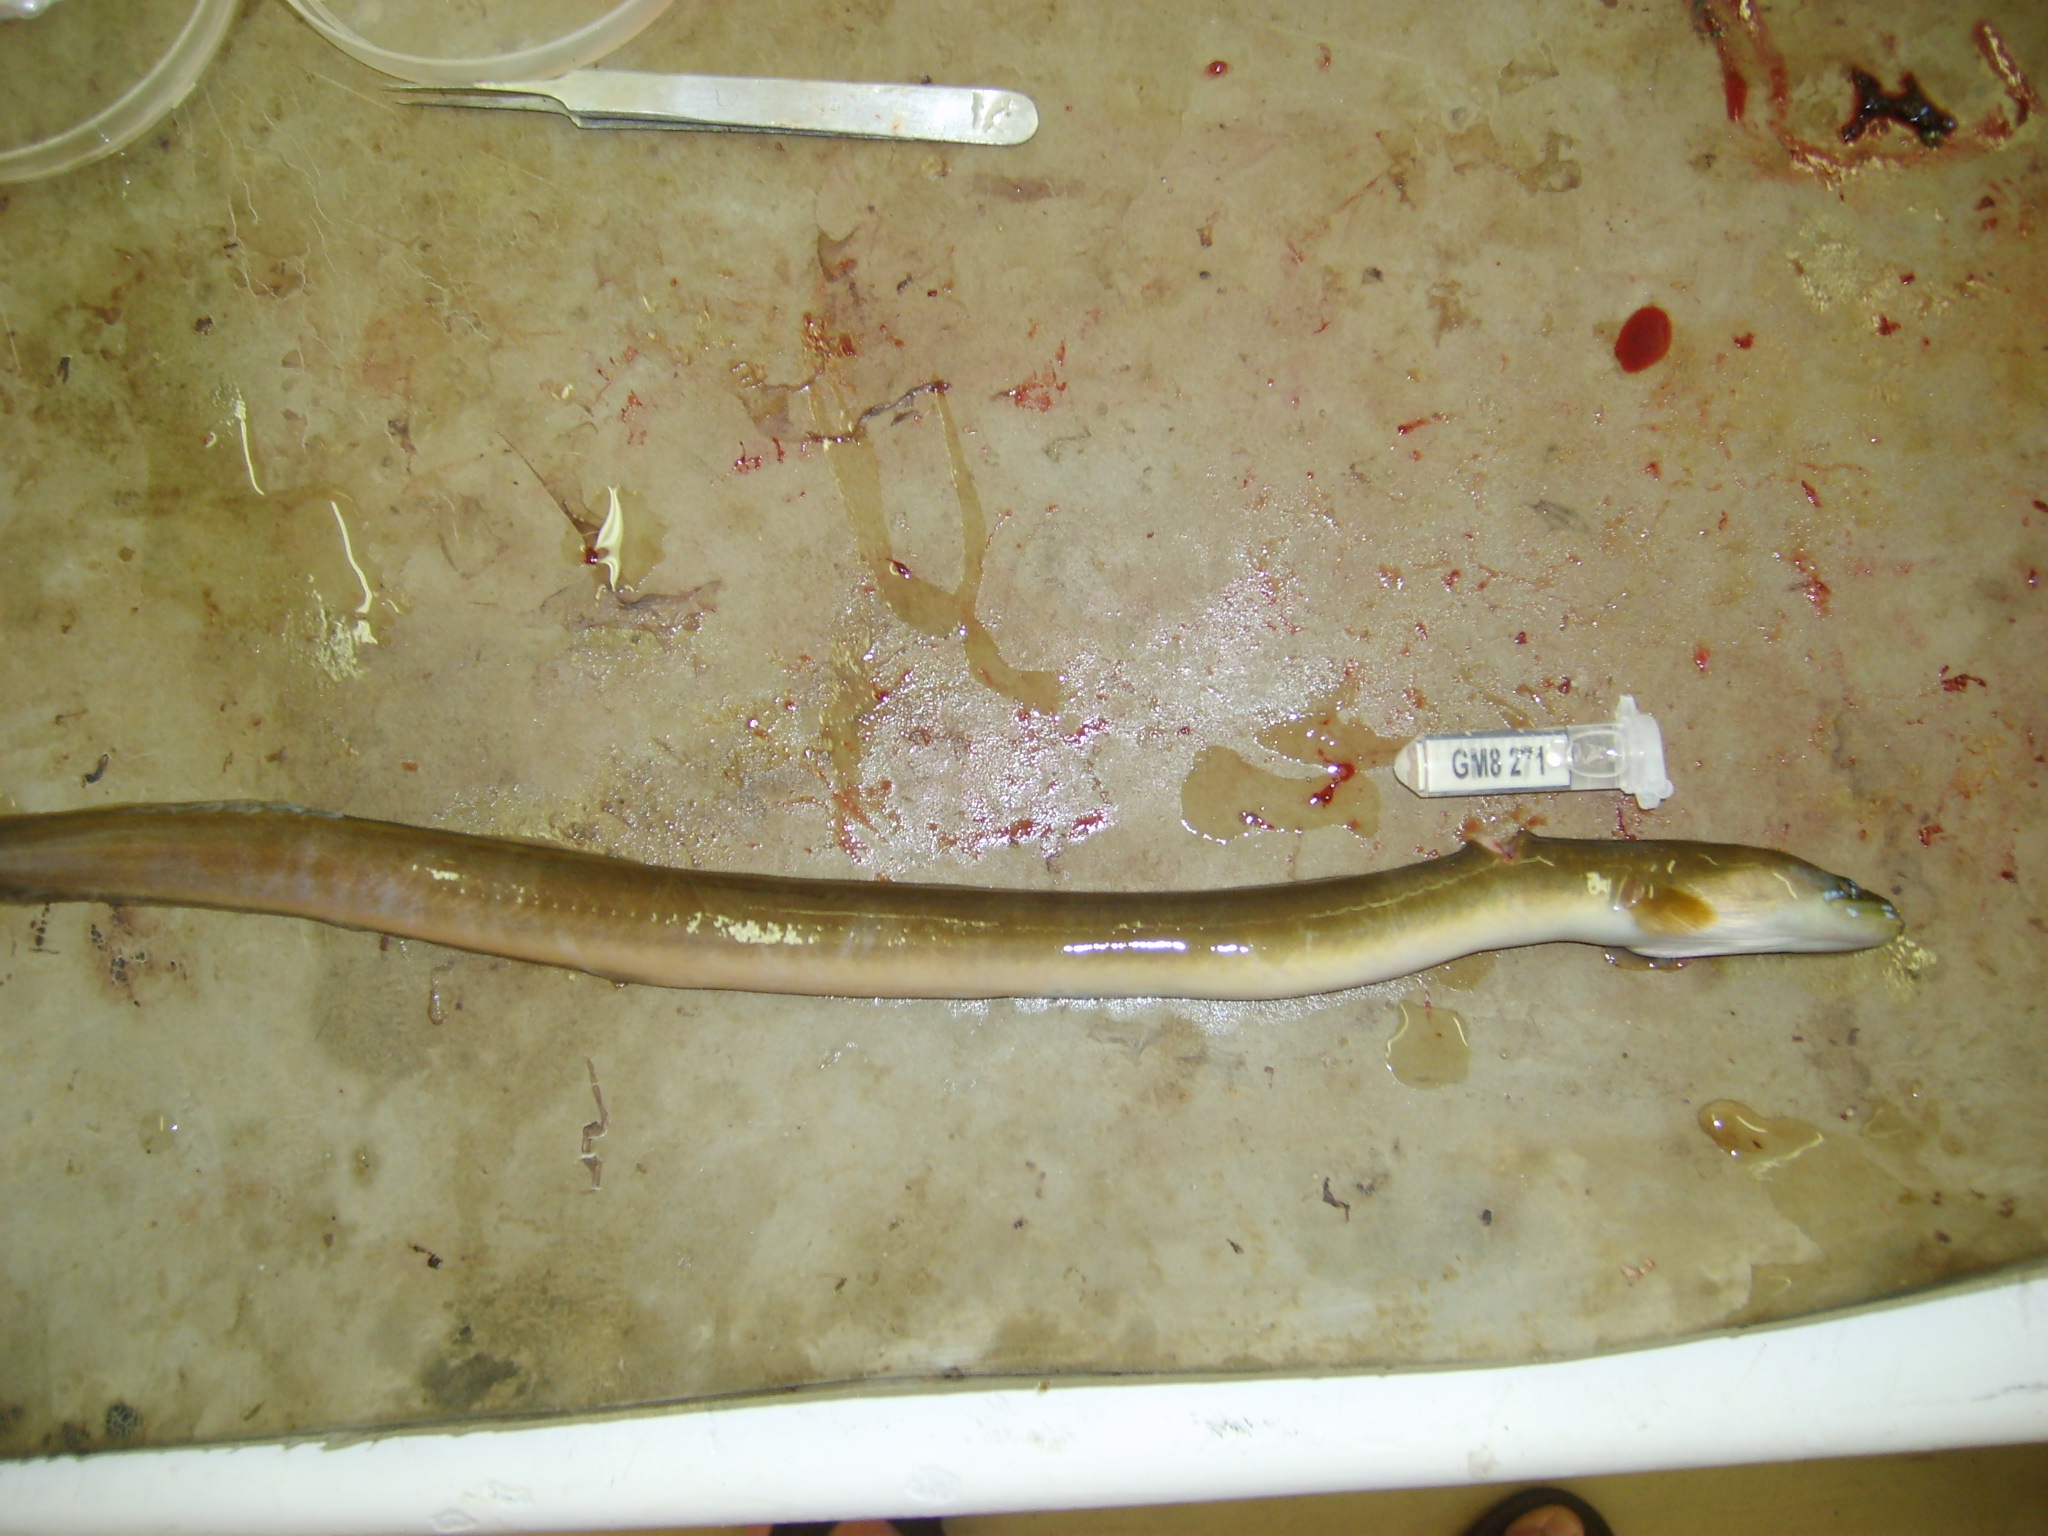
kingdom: Animalia
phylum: Chordata
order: Anguilliformes
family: Anguillidae
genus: Anguilla
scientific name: Anguilla mossambica
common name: African longfin eel
